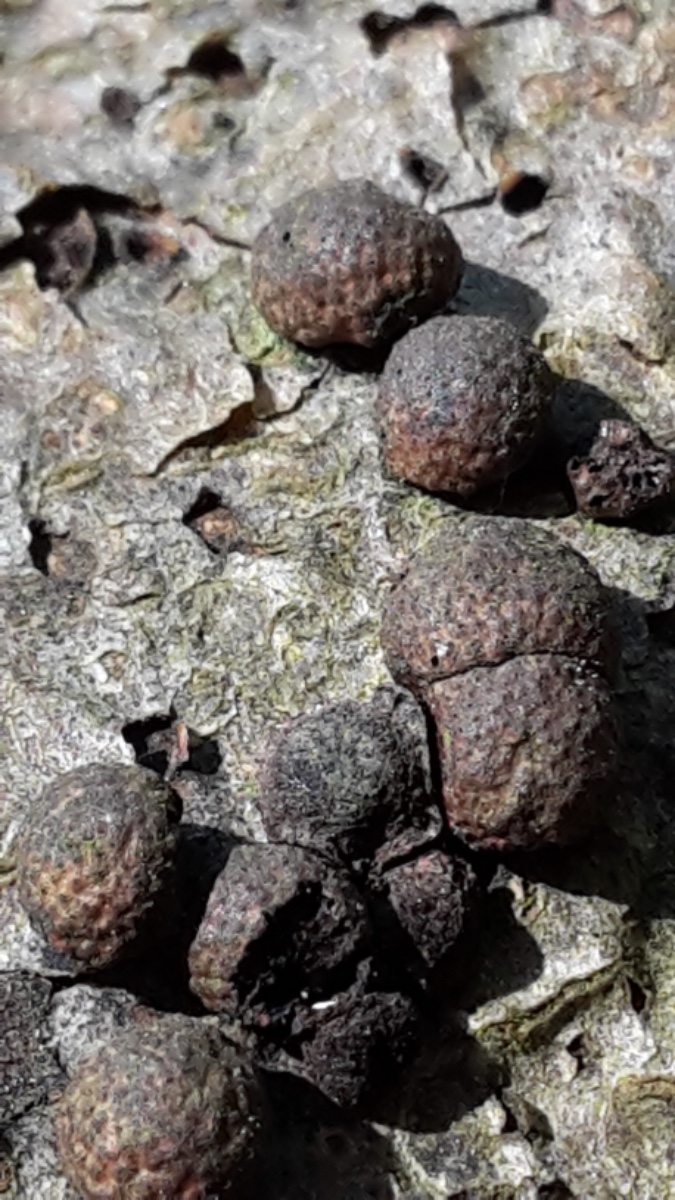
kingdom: Fungi
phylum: Ascomycota
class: Sordariomycetes
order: Xylariales
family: Hypoxylaceae
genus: Hypoxylon
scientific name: Hypoxylon fragiforme
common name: kuljordbær
